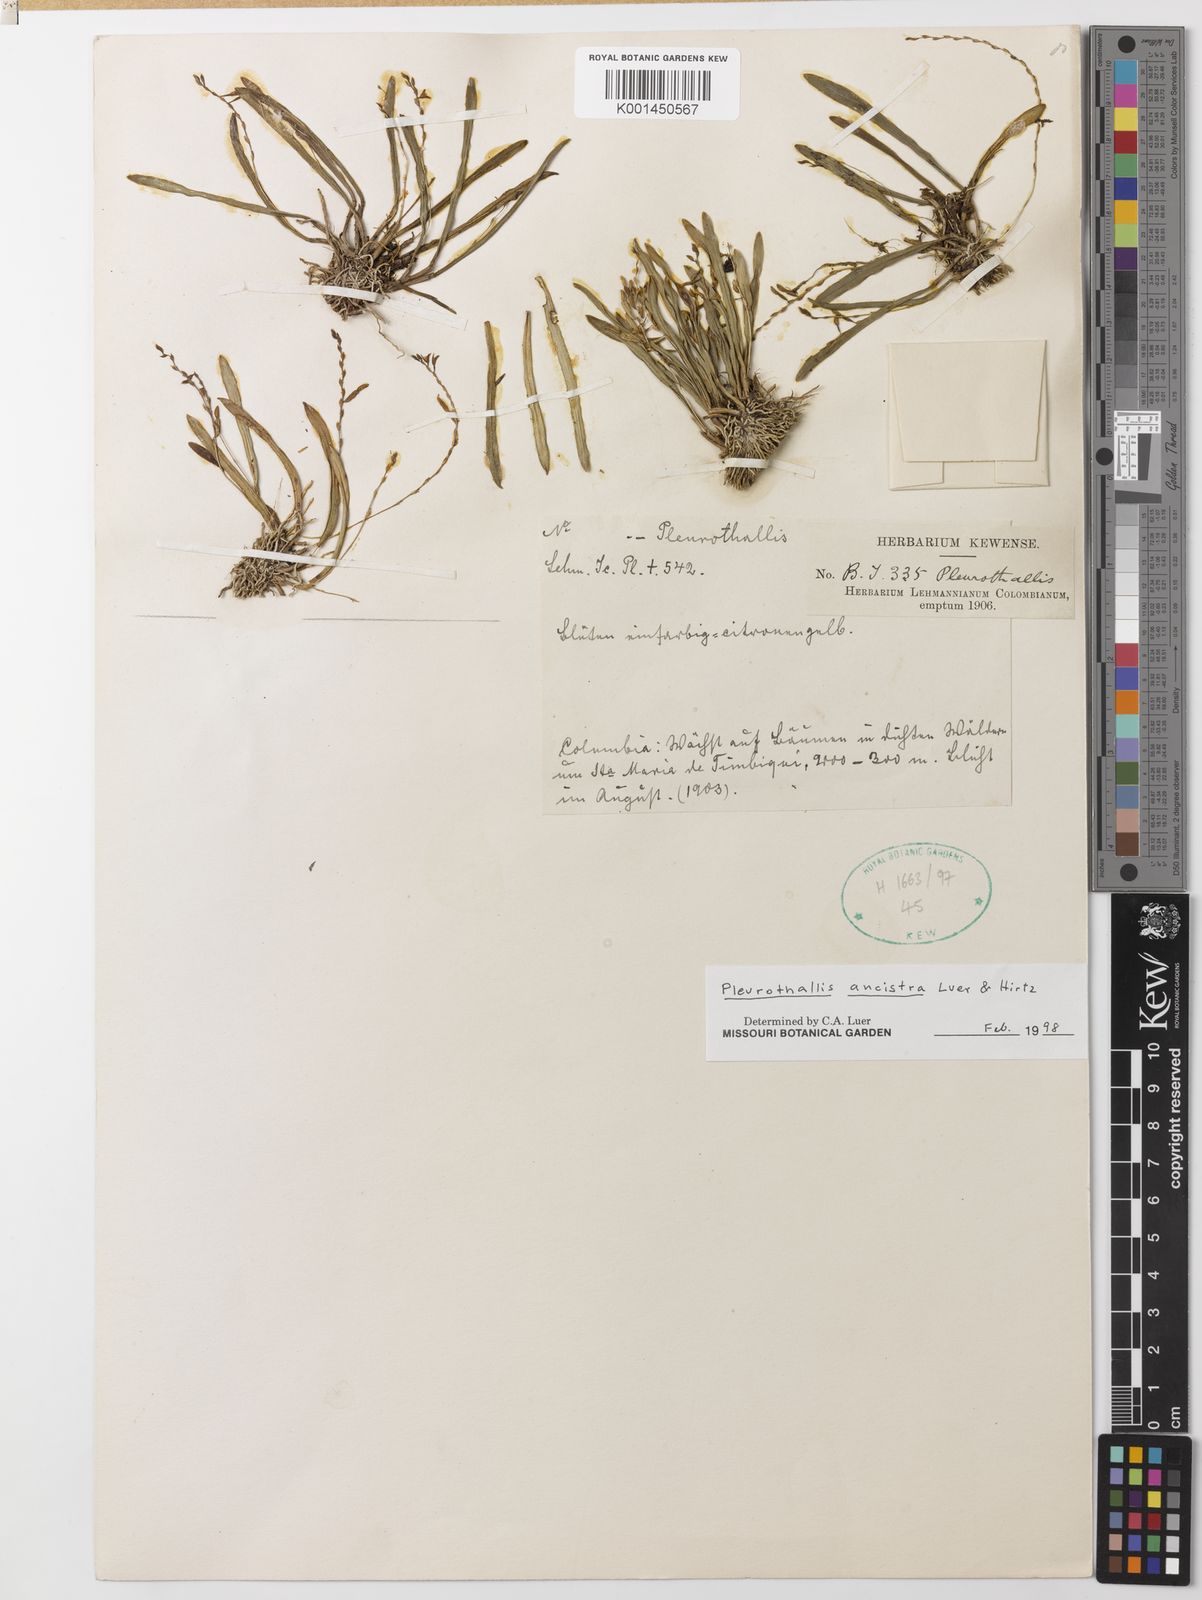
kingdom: Plantae
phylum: Tracheophyta
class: Liliopsida
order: Asparagales
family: Orchidaceae
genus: Stelis
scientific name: Stelis ancistra
